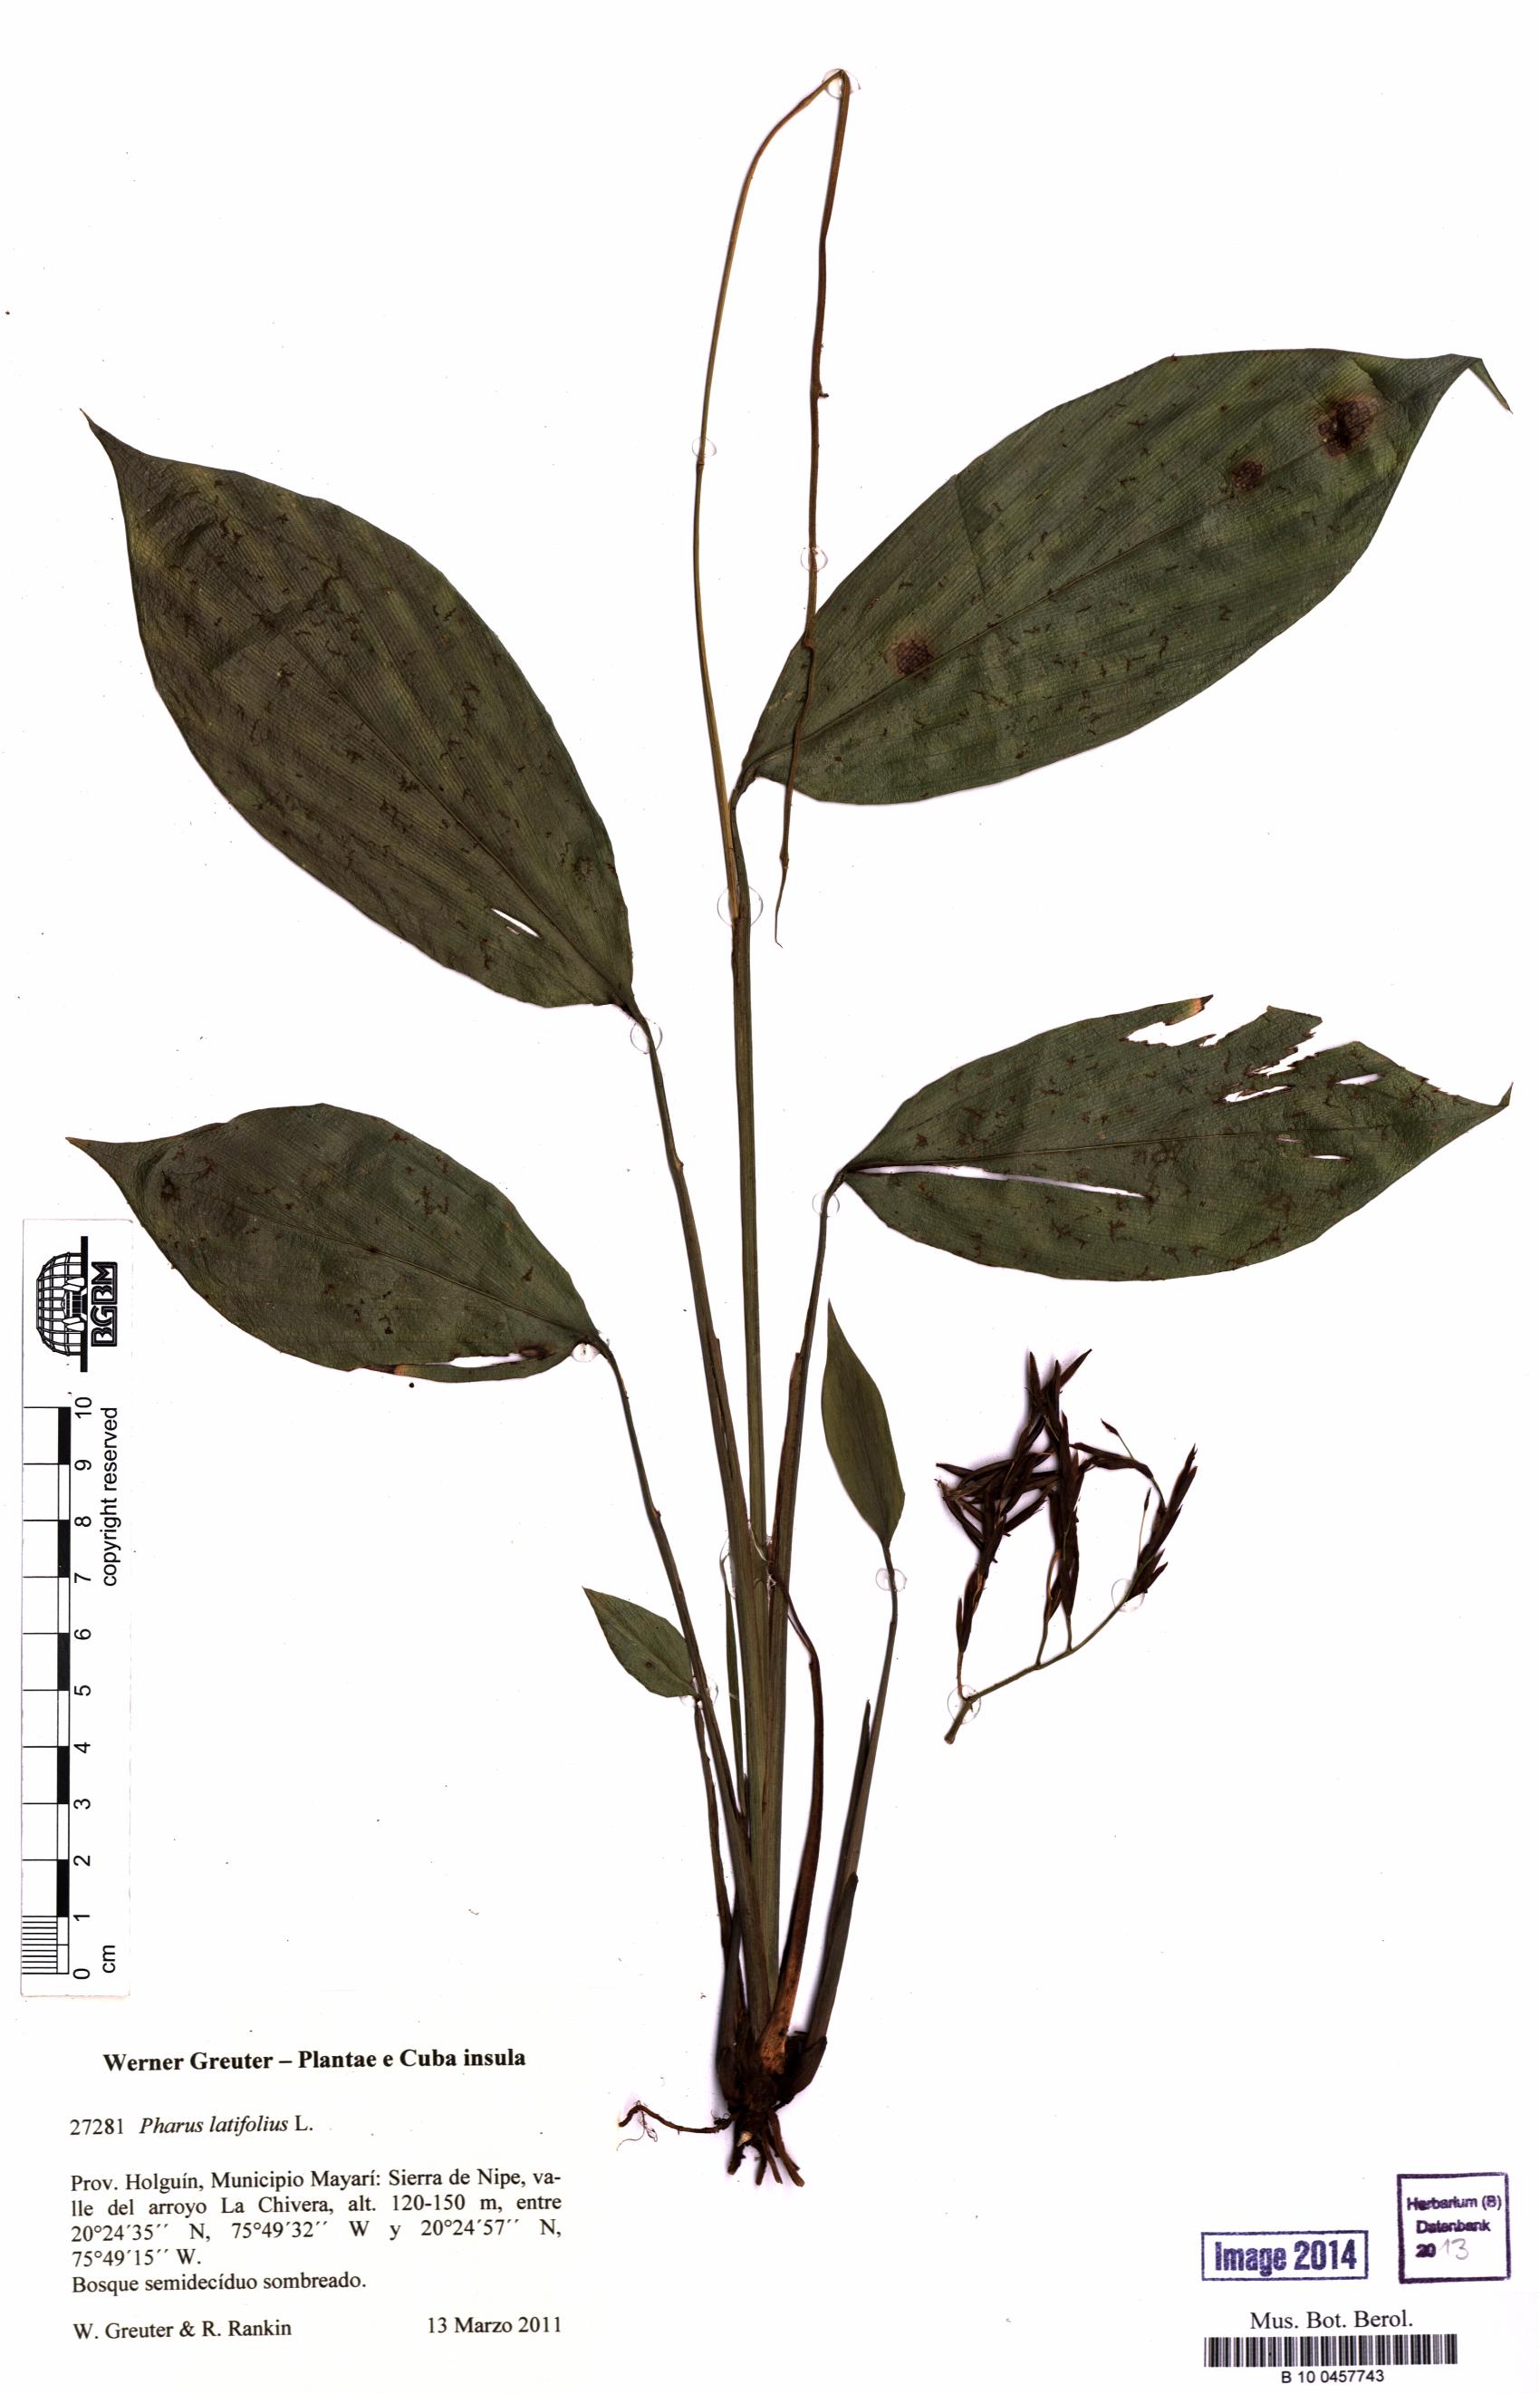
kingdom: Plantae
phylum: Tracheophyta
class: Liliopsida
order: Poales
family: Poaceae
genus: Pharus
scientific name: Pharus latifolius
